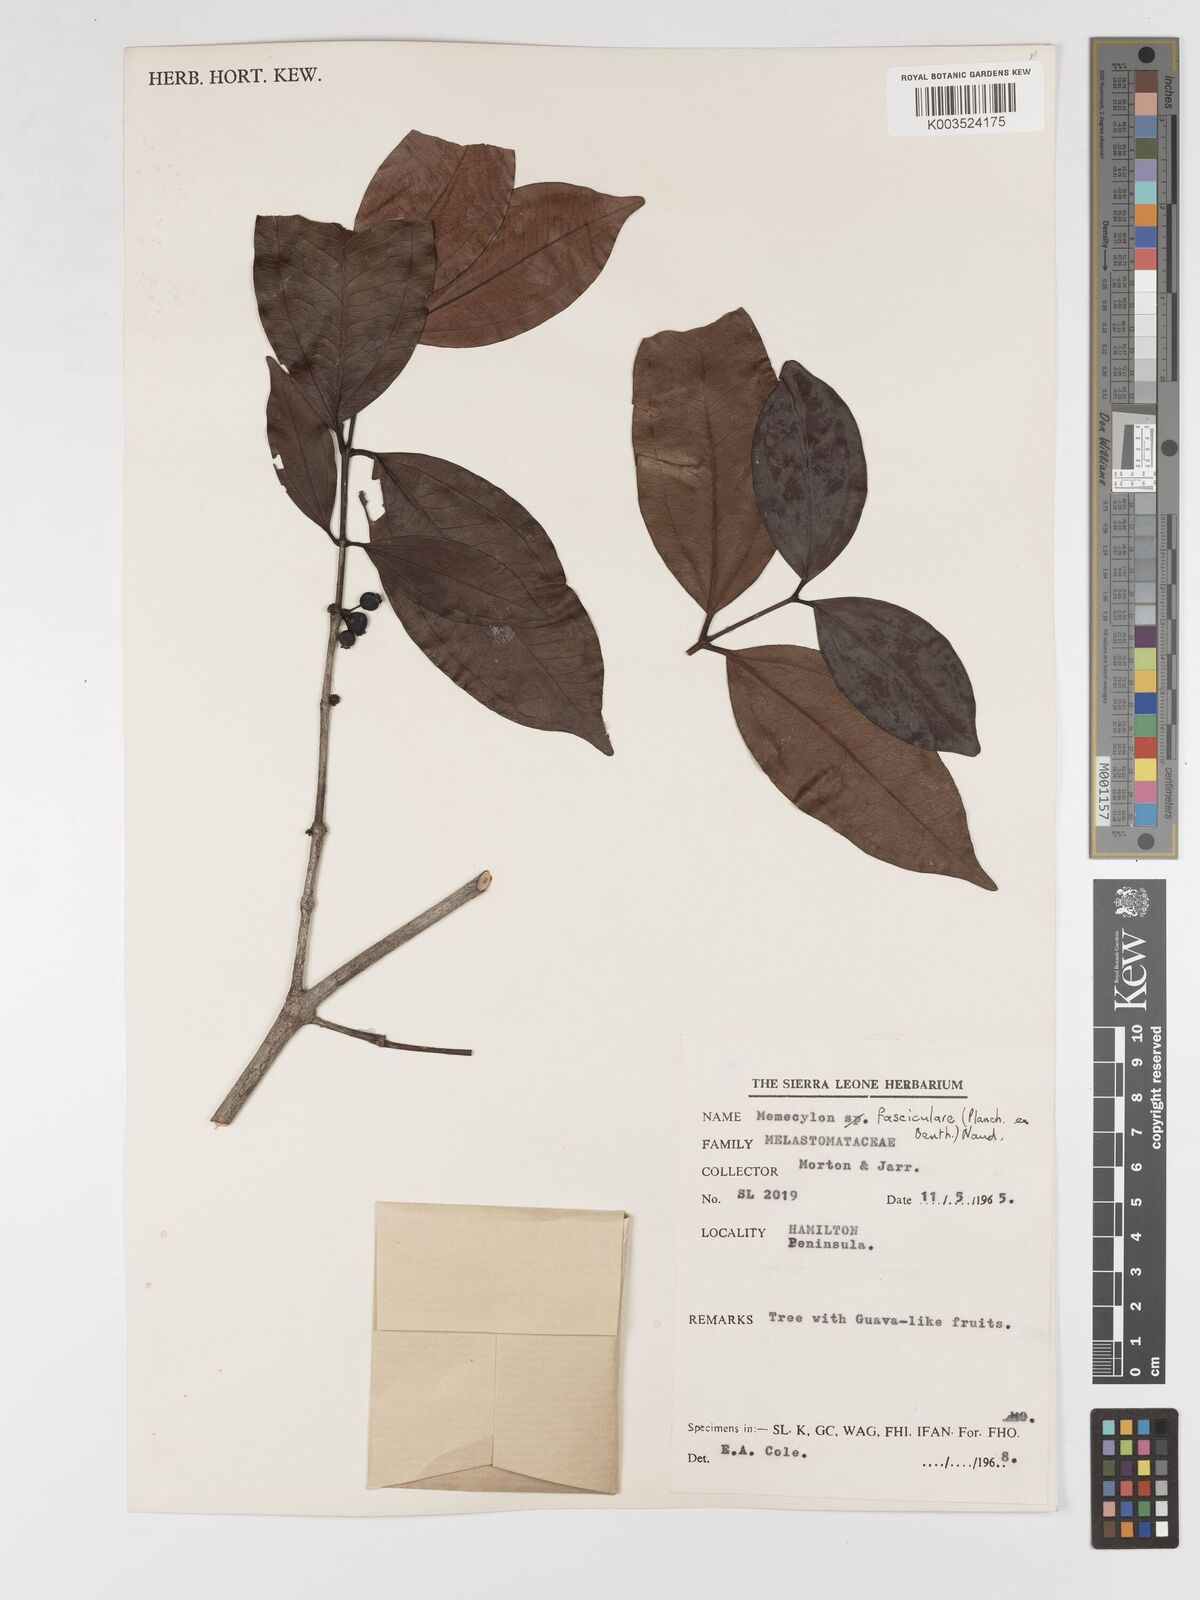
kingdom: Plantae
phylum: Tracheophyta
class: Magnoliopsida
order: Myrtales
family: Melastomataceae
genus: Warneckea
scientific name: Warneckea fascicularis
